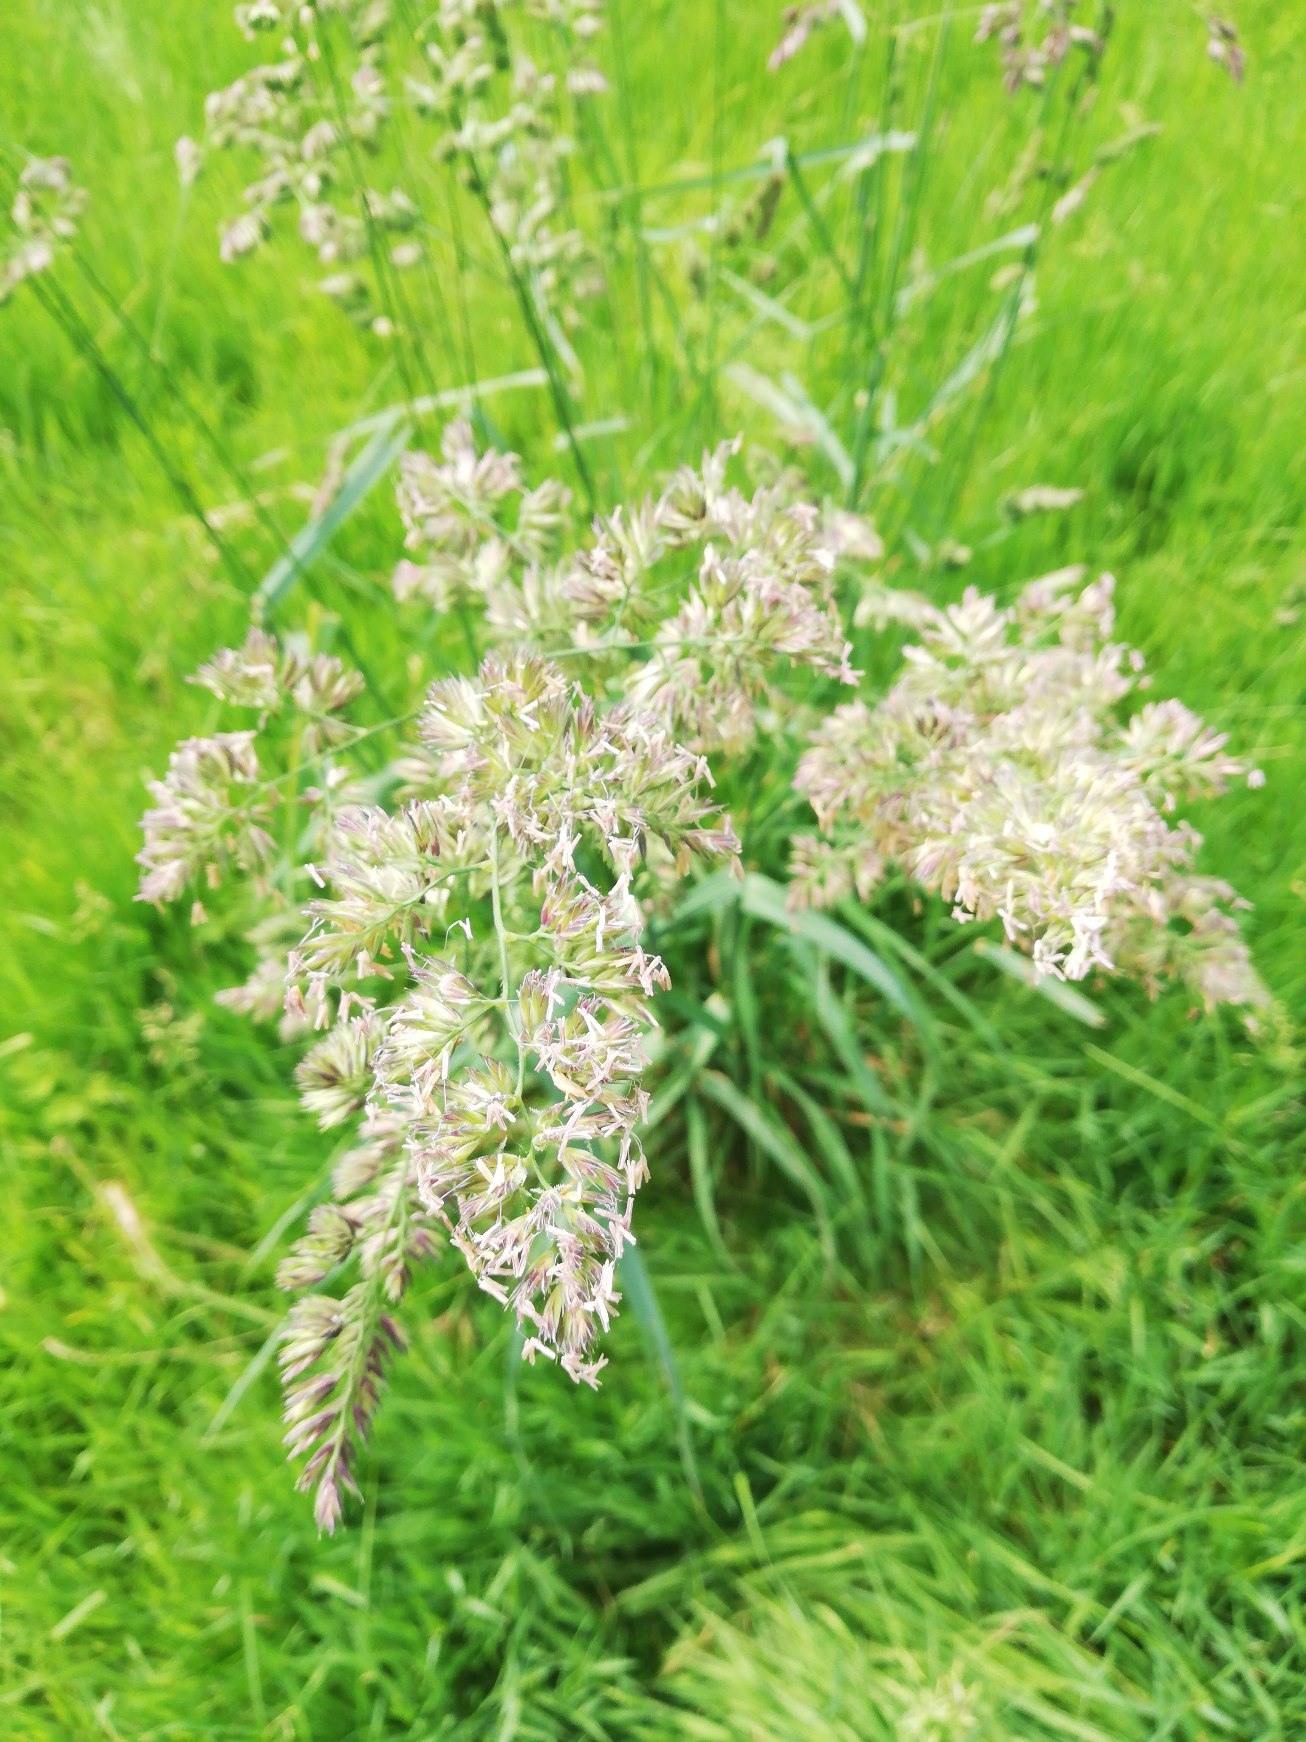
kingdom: Plantae
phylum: Tracheophyta
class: Liliopsida
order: Poales
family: Poaceae
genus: Dactylis
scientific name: Dactylis glomerata
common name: Almindelig hundegræs
